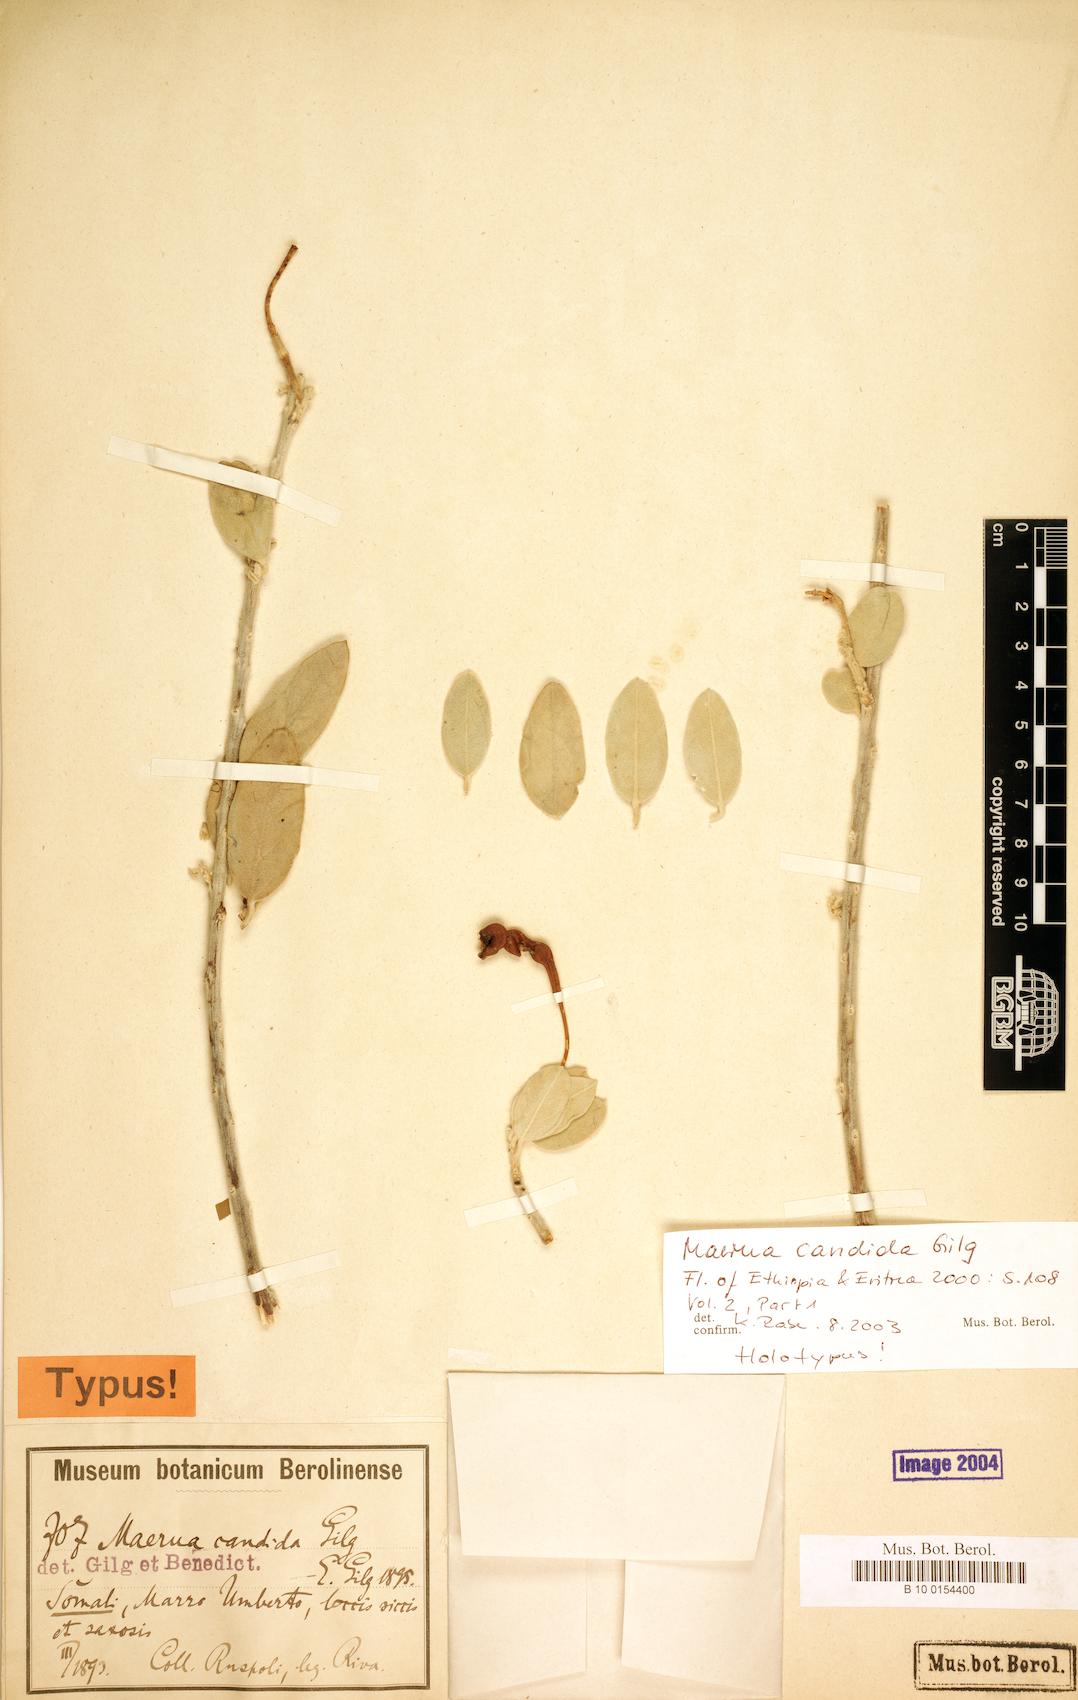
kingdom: Plantae
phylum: Tracheophyta
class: Magnoliopsida
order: Brassicales
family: Capparaceae
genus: Maerua
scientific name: Maerua candida
